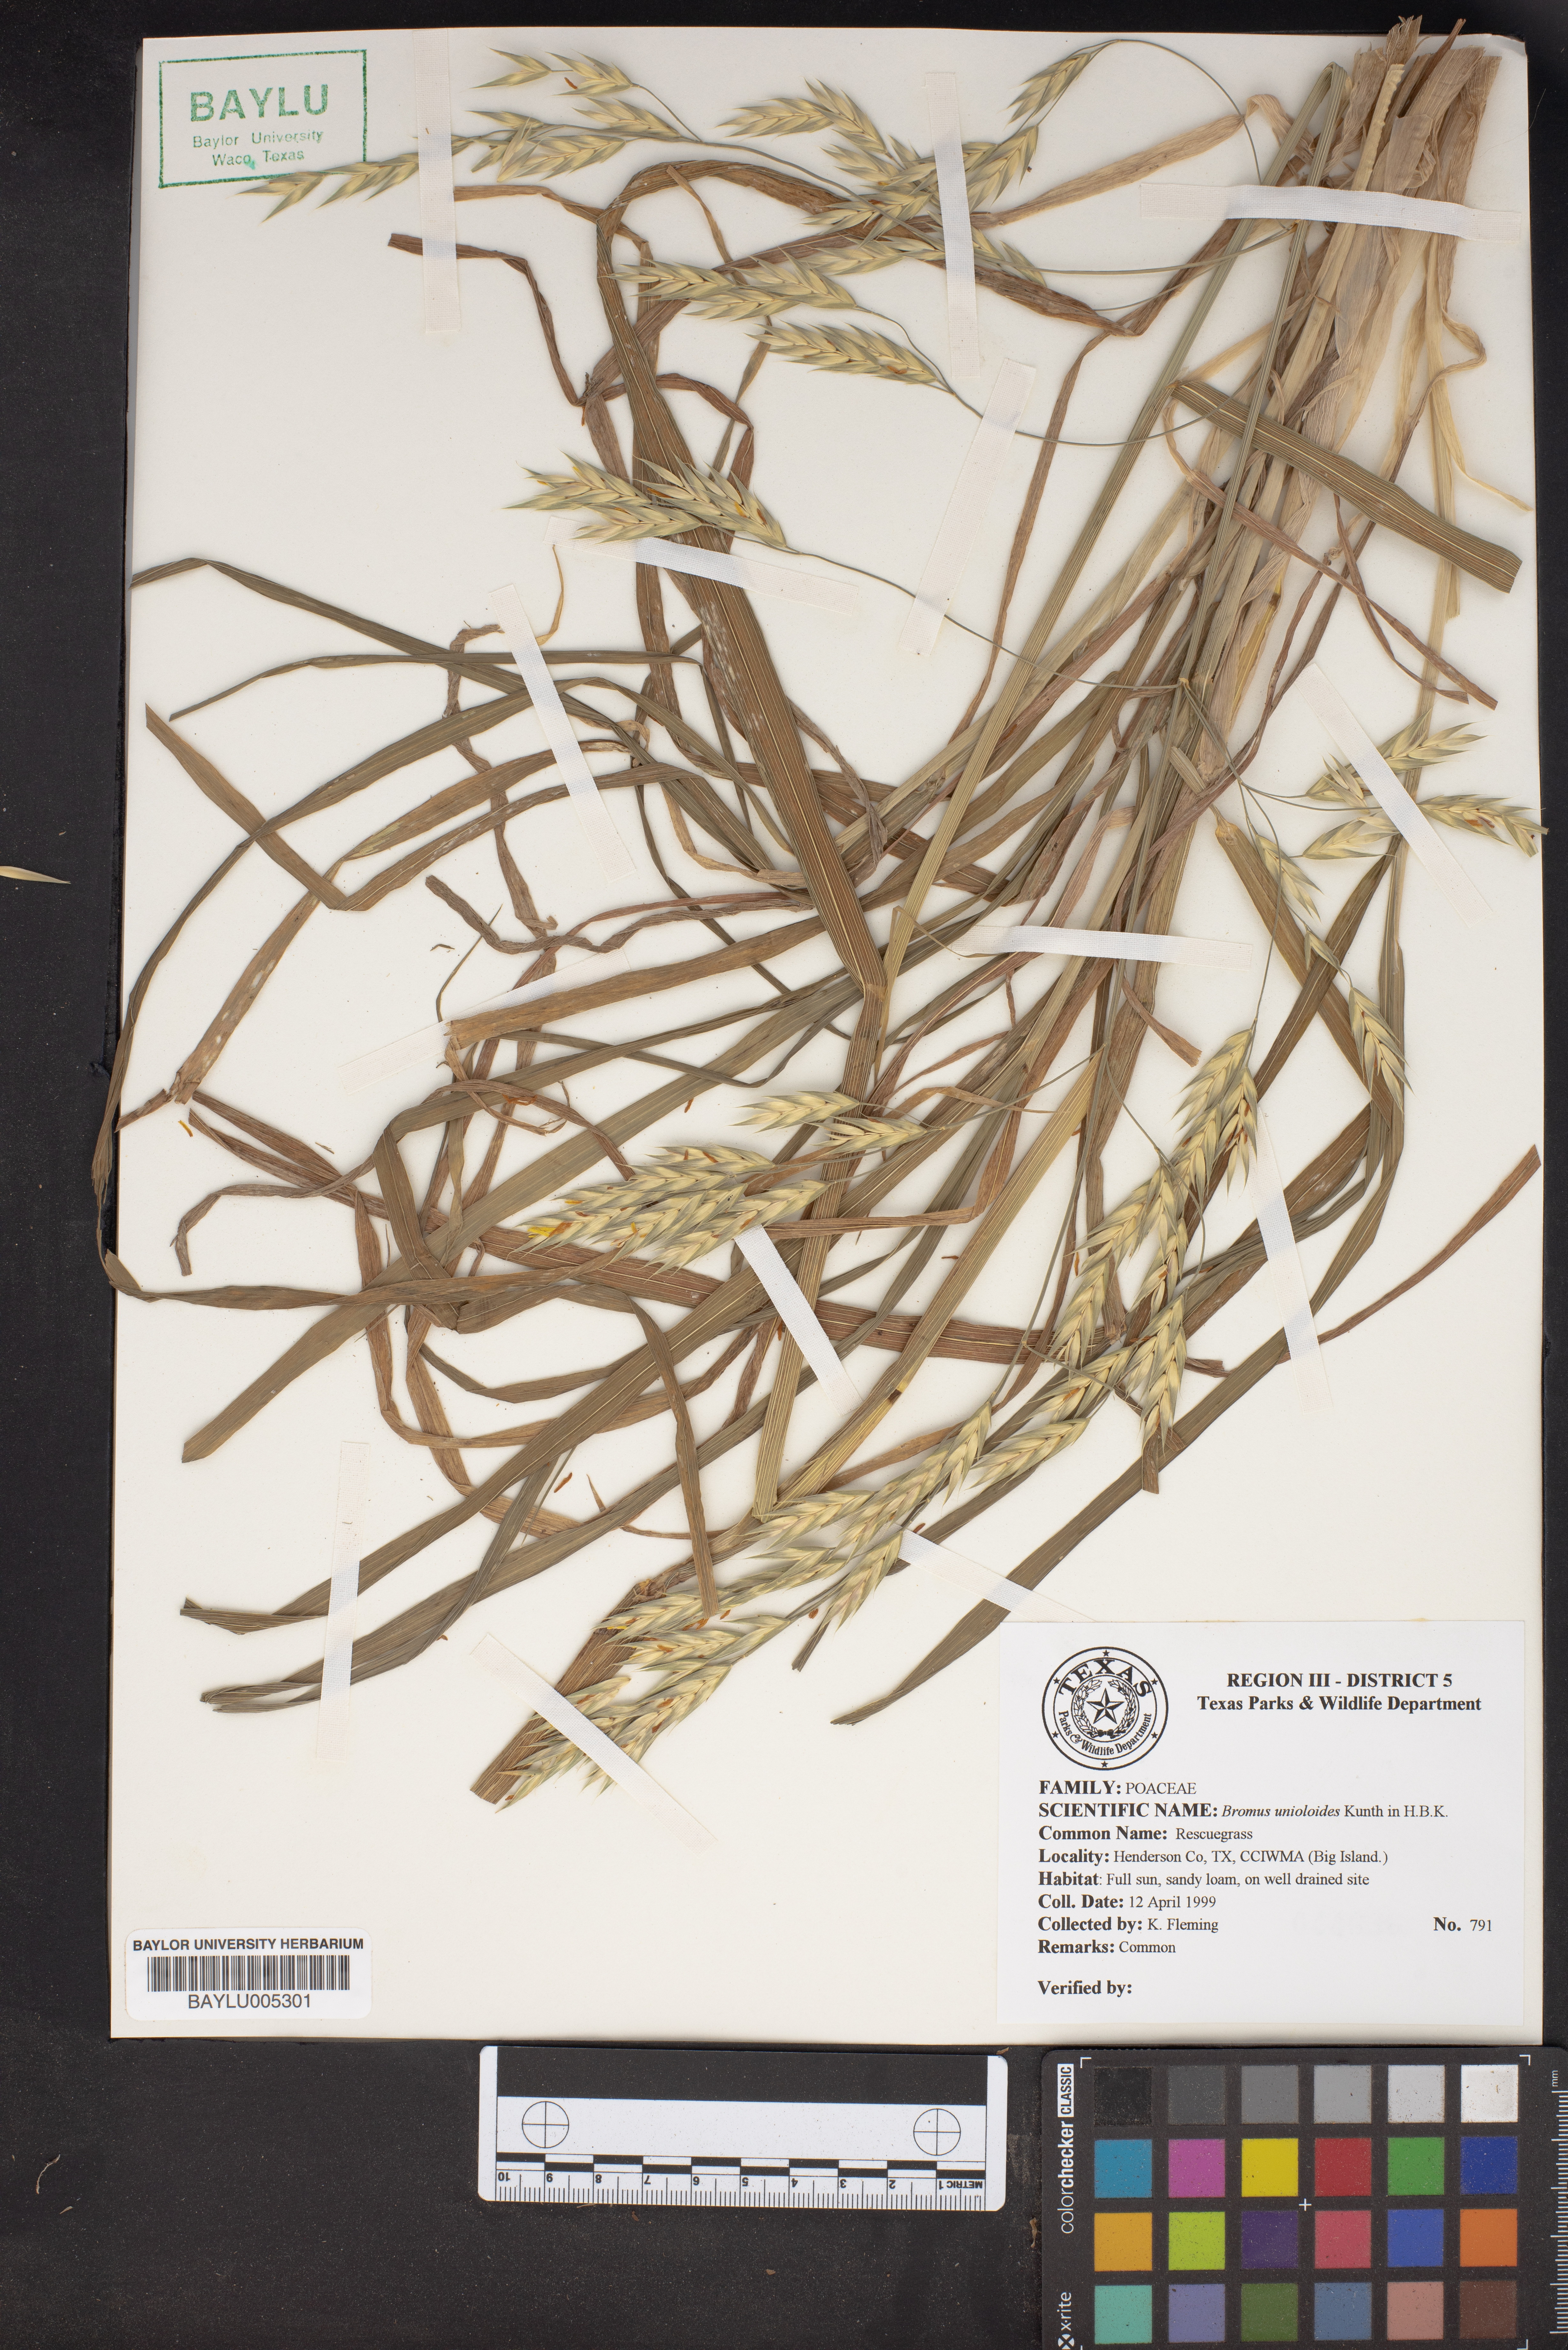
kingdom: Plantae
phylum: Tracheophyta
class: Liliopsida
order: Poales
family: Poaceae
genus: Bromus
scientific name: Bromus catharticus
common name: Rescuegrass
